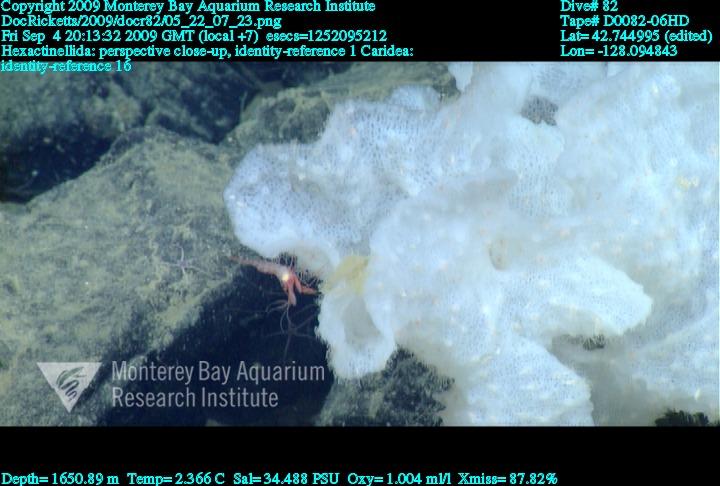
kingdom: Animalia
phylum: Porifera
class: Hexactinellida
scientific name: Hexactinellida
